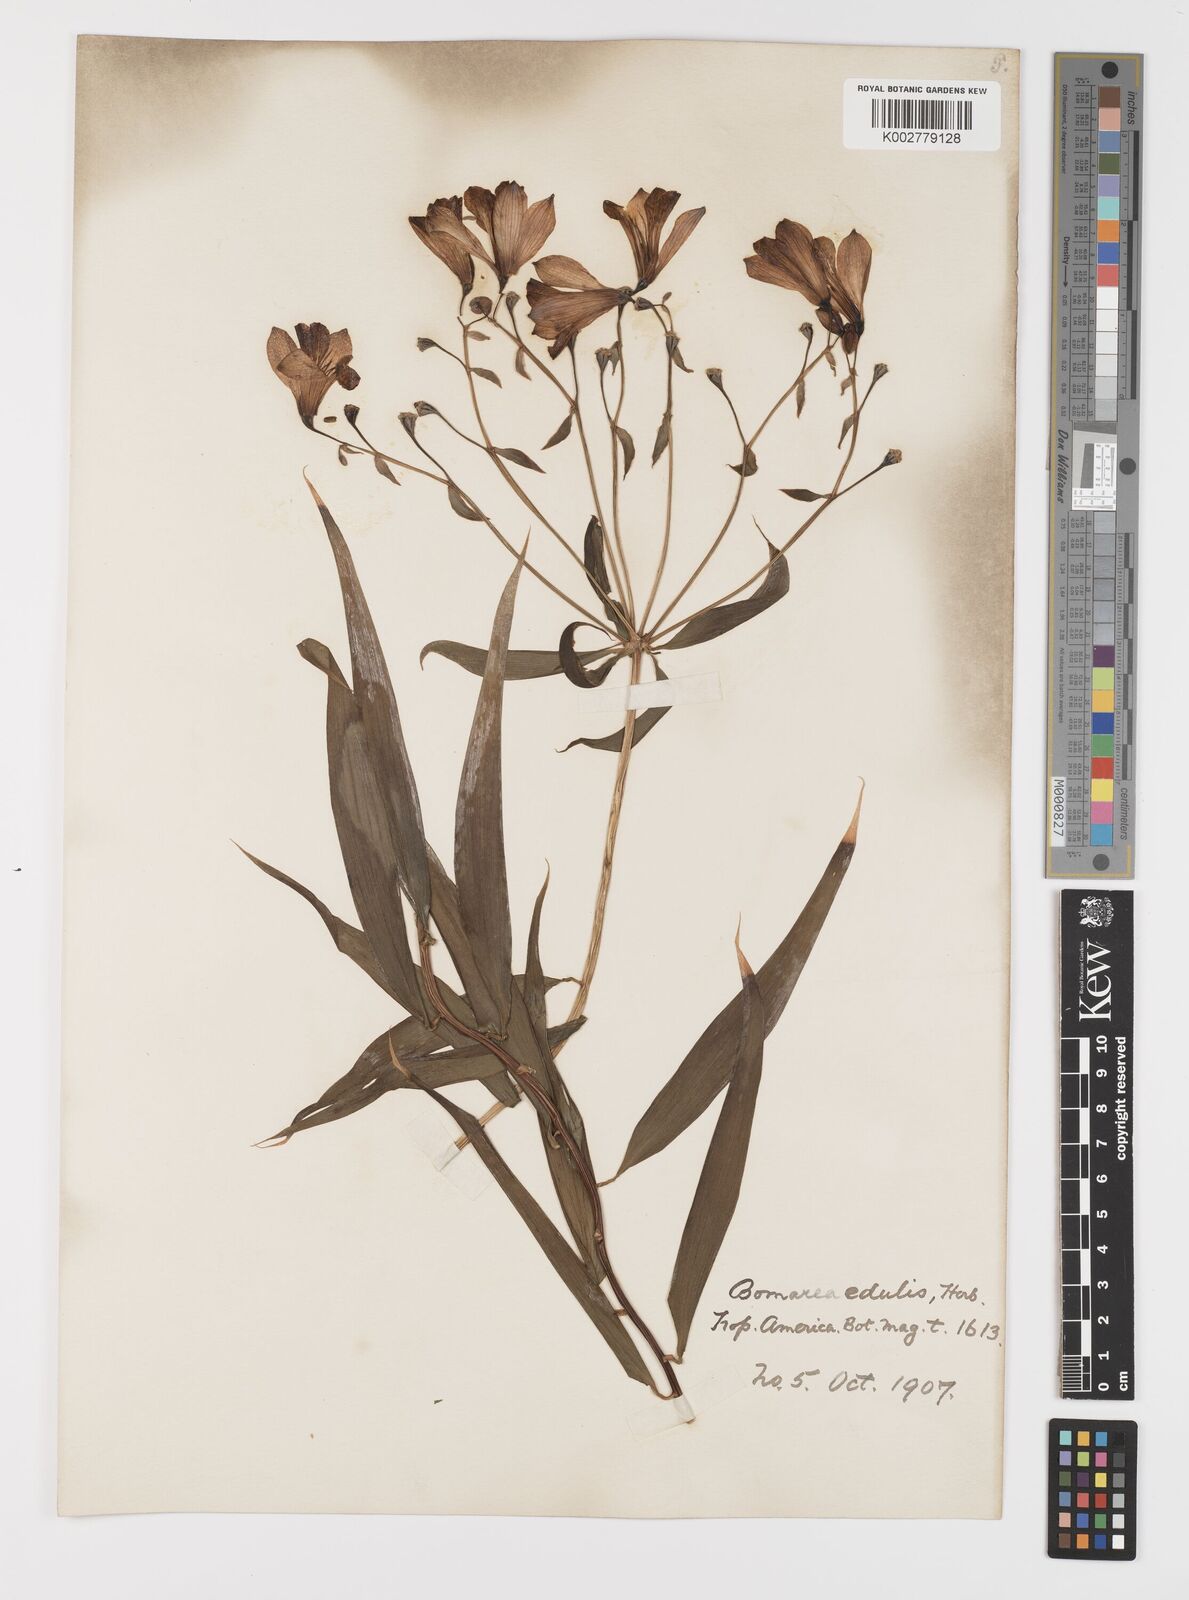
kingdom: Plantae
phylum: Tracheophyta
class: Liliopsida
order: Liliales
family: Alstroemeriaceae
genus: Bomarea
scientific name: Bomarea edulis
